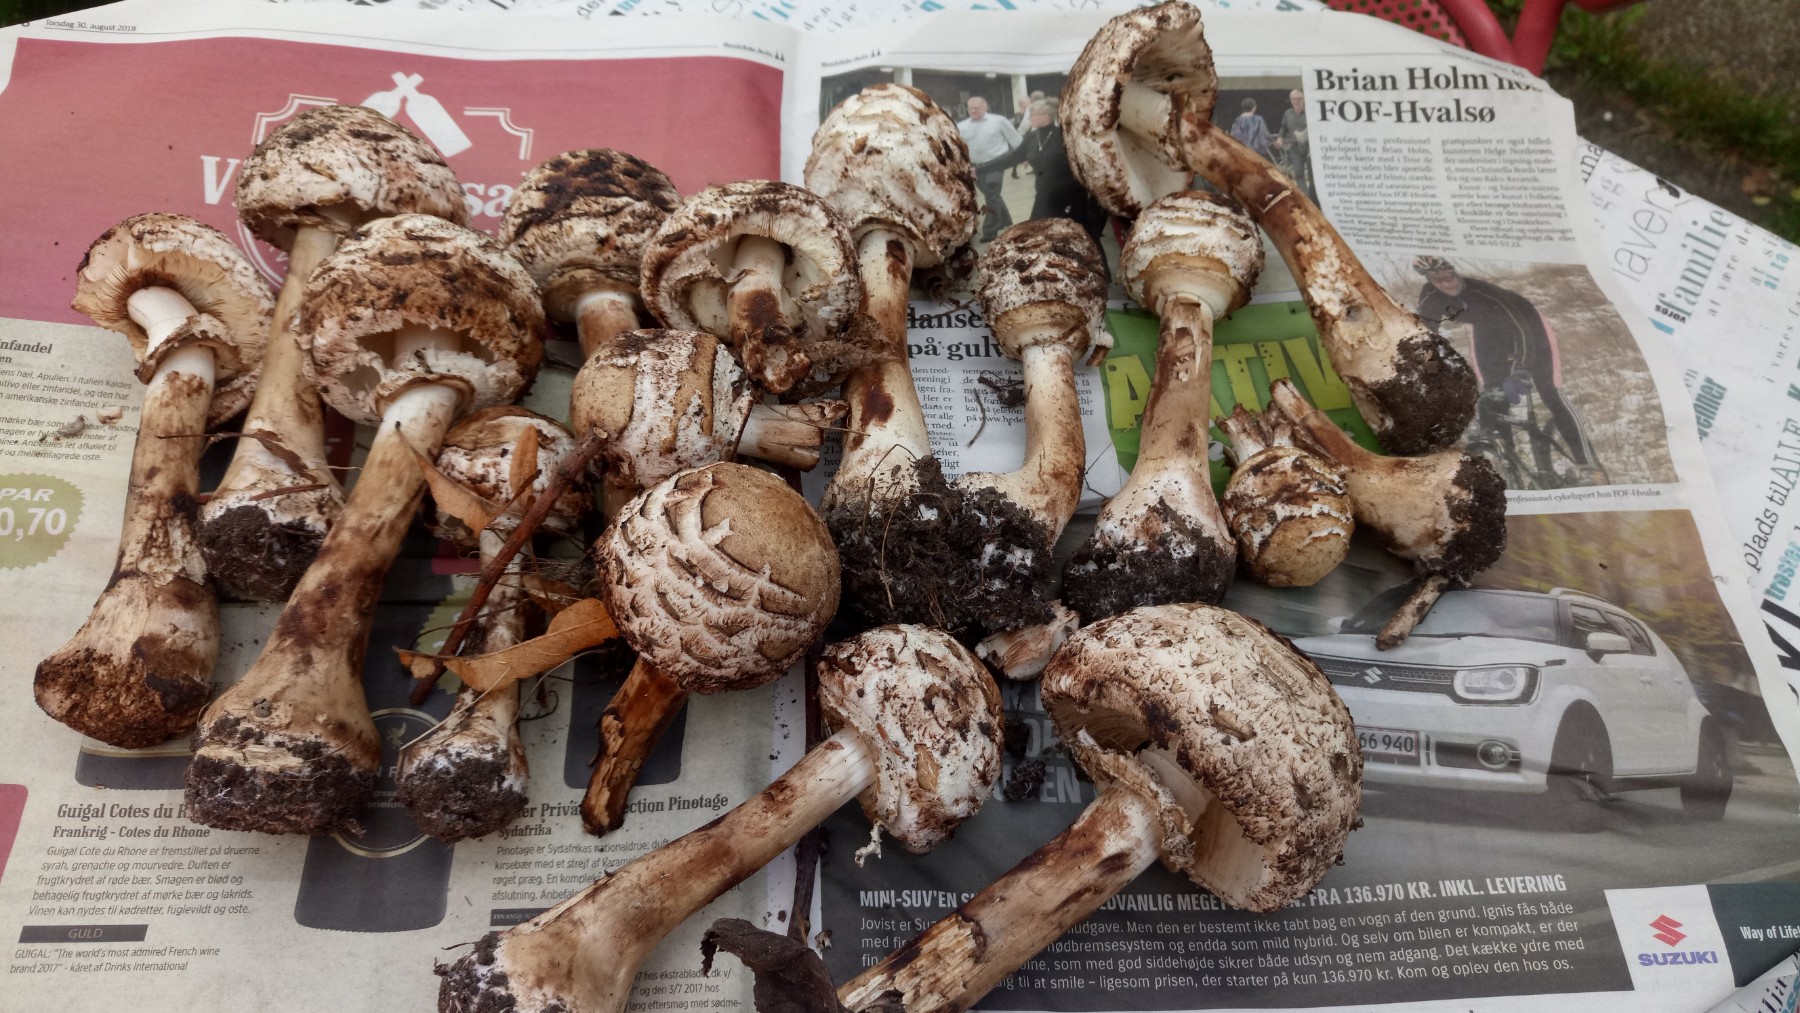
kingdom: Fungi
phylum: Basidiomycota
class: Agaricomycetes
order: Agaricales
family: Agaricaceae
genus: Chlorophyllum
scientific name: Chlorophyllum rhacodes
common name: ægte rabarberhat
